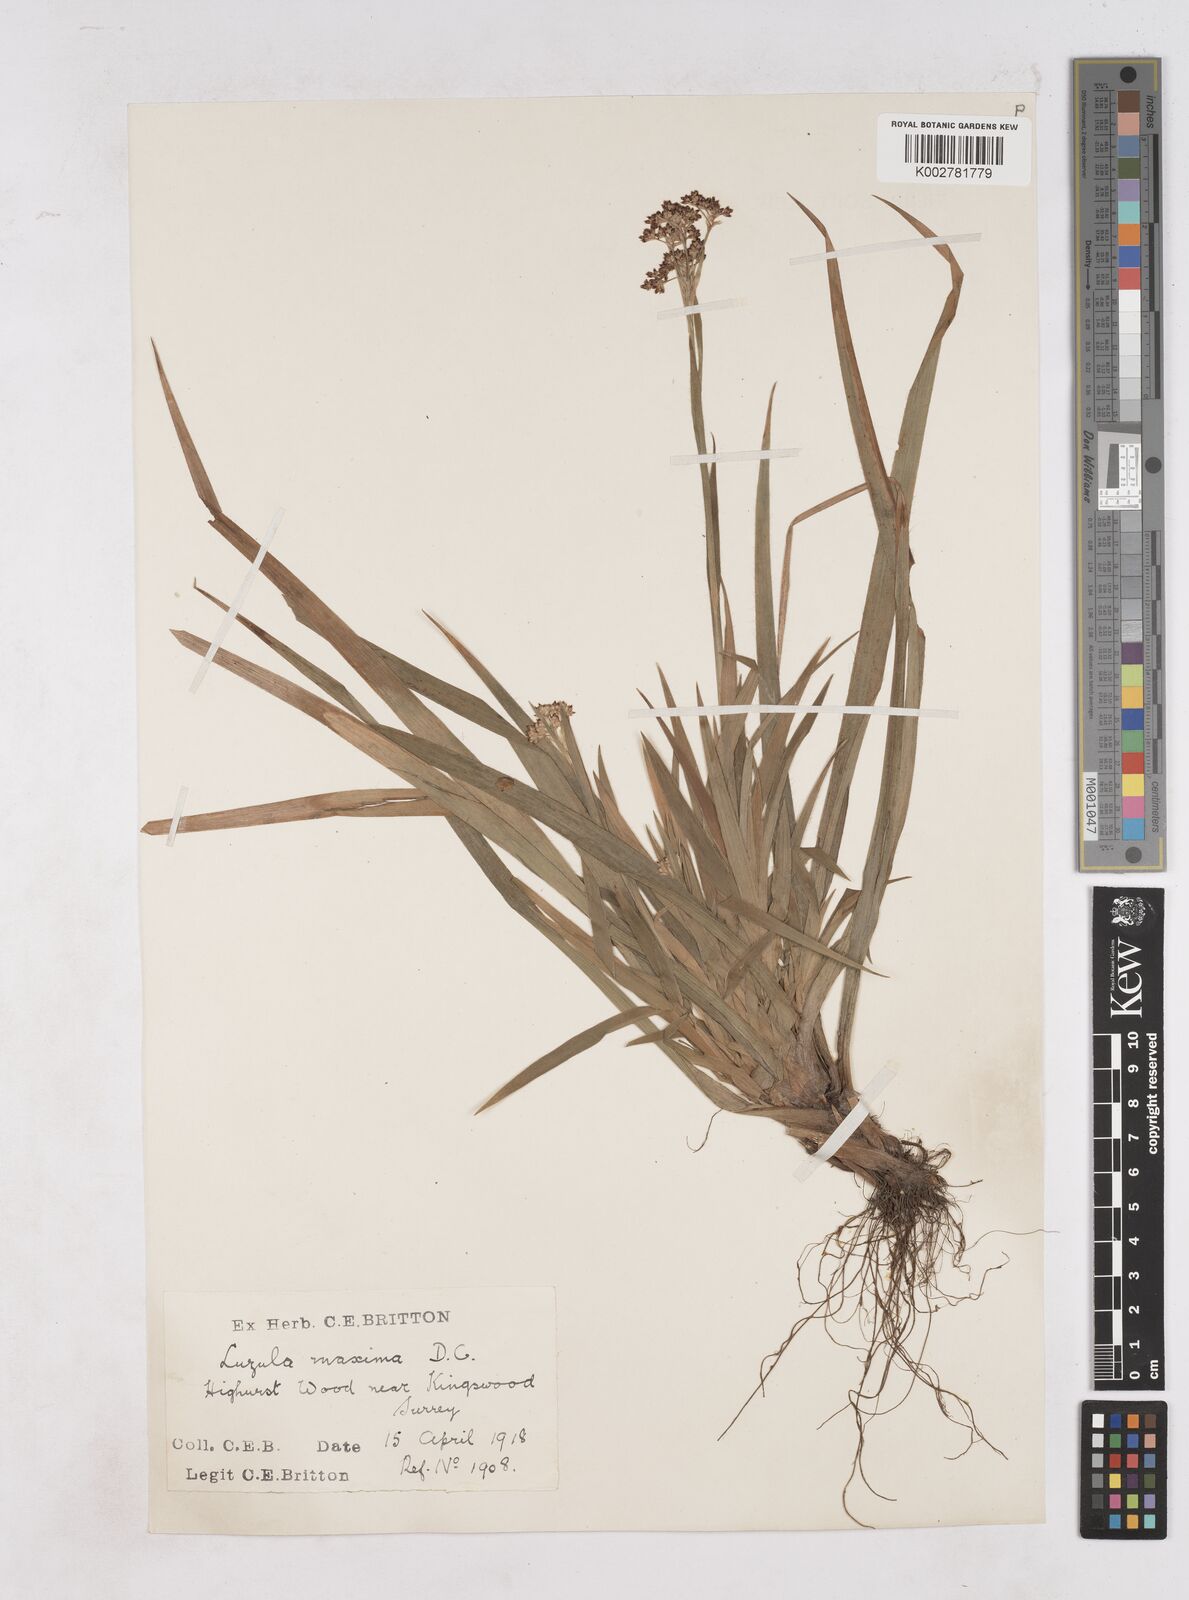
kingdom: Plantae
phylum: Tracheophyta
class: Liliopsida
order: Poales
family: Juncaceae
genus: Luzula
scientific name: Luzula sylvatica
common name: Great wood-rush
